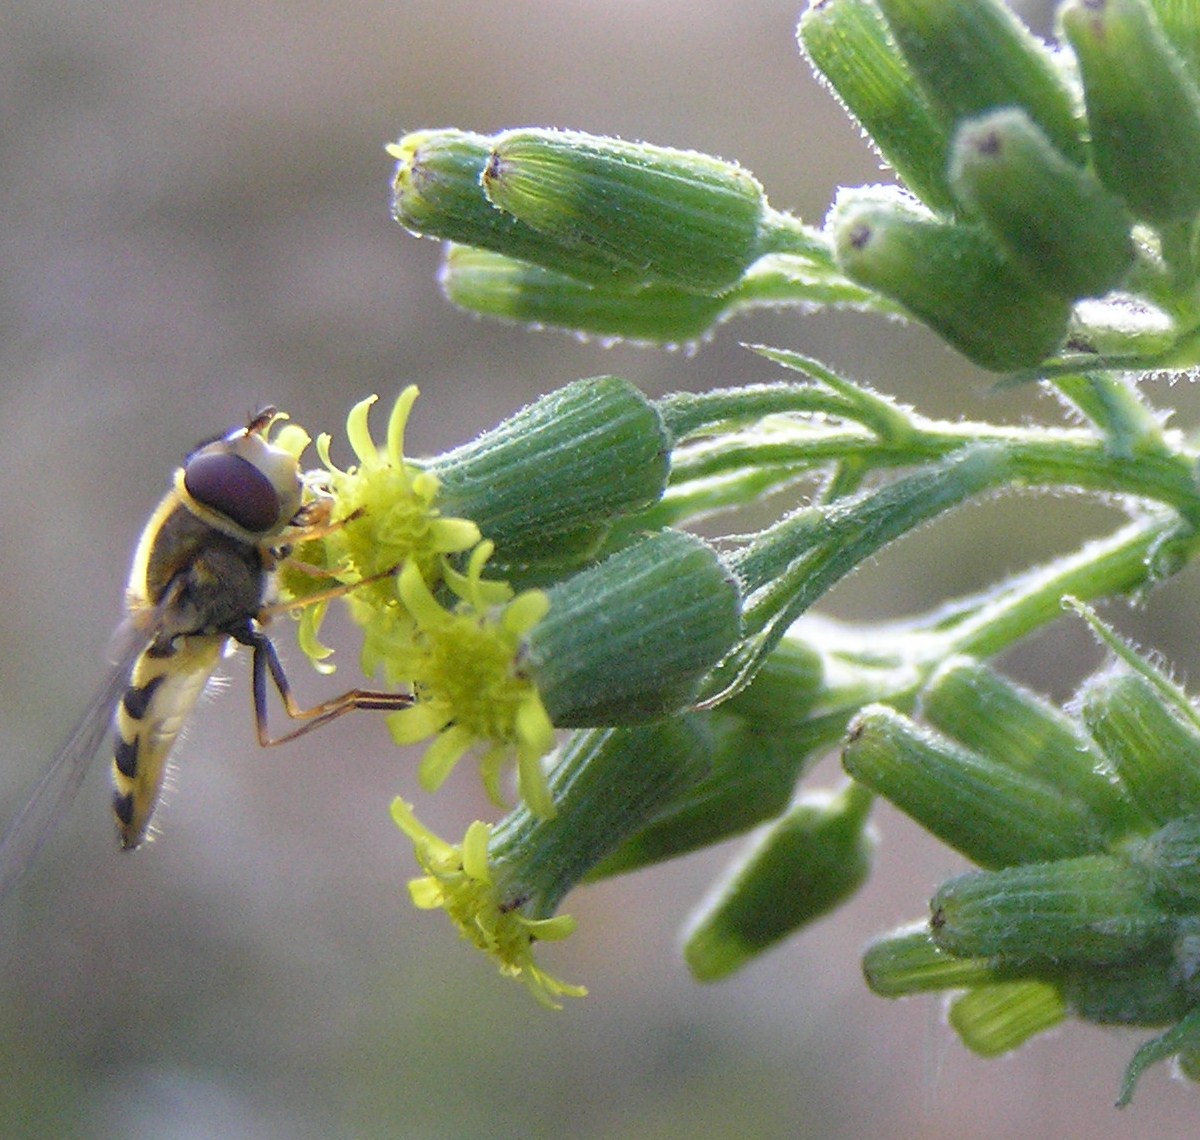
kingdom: Animalia
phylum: Arthropoda
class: Insecta
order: Diptera
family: Syrphidae
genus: Syrphus
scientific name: Syrphus
